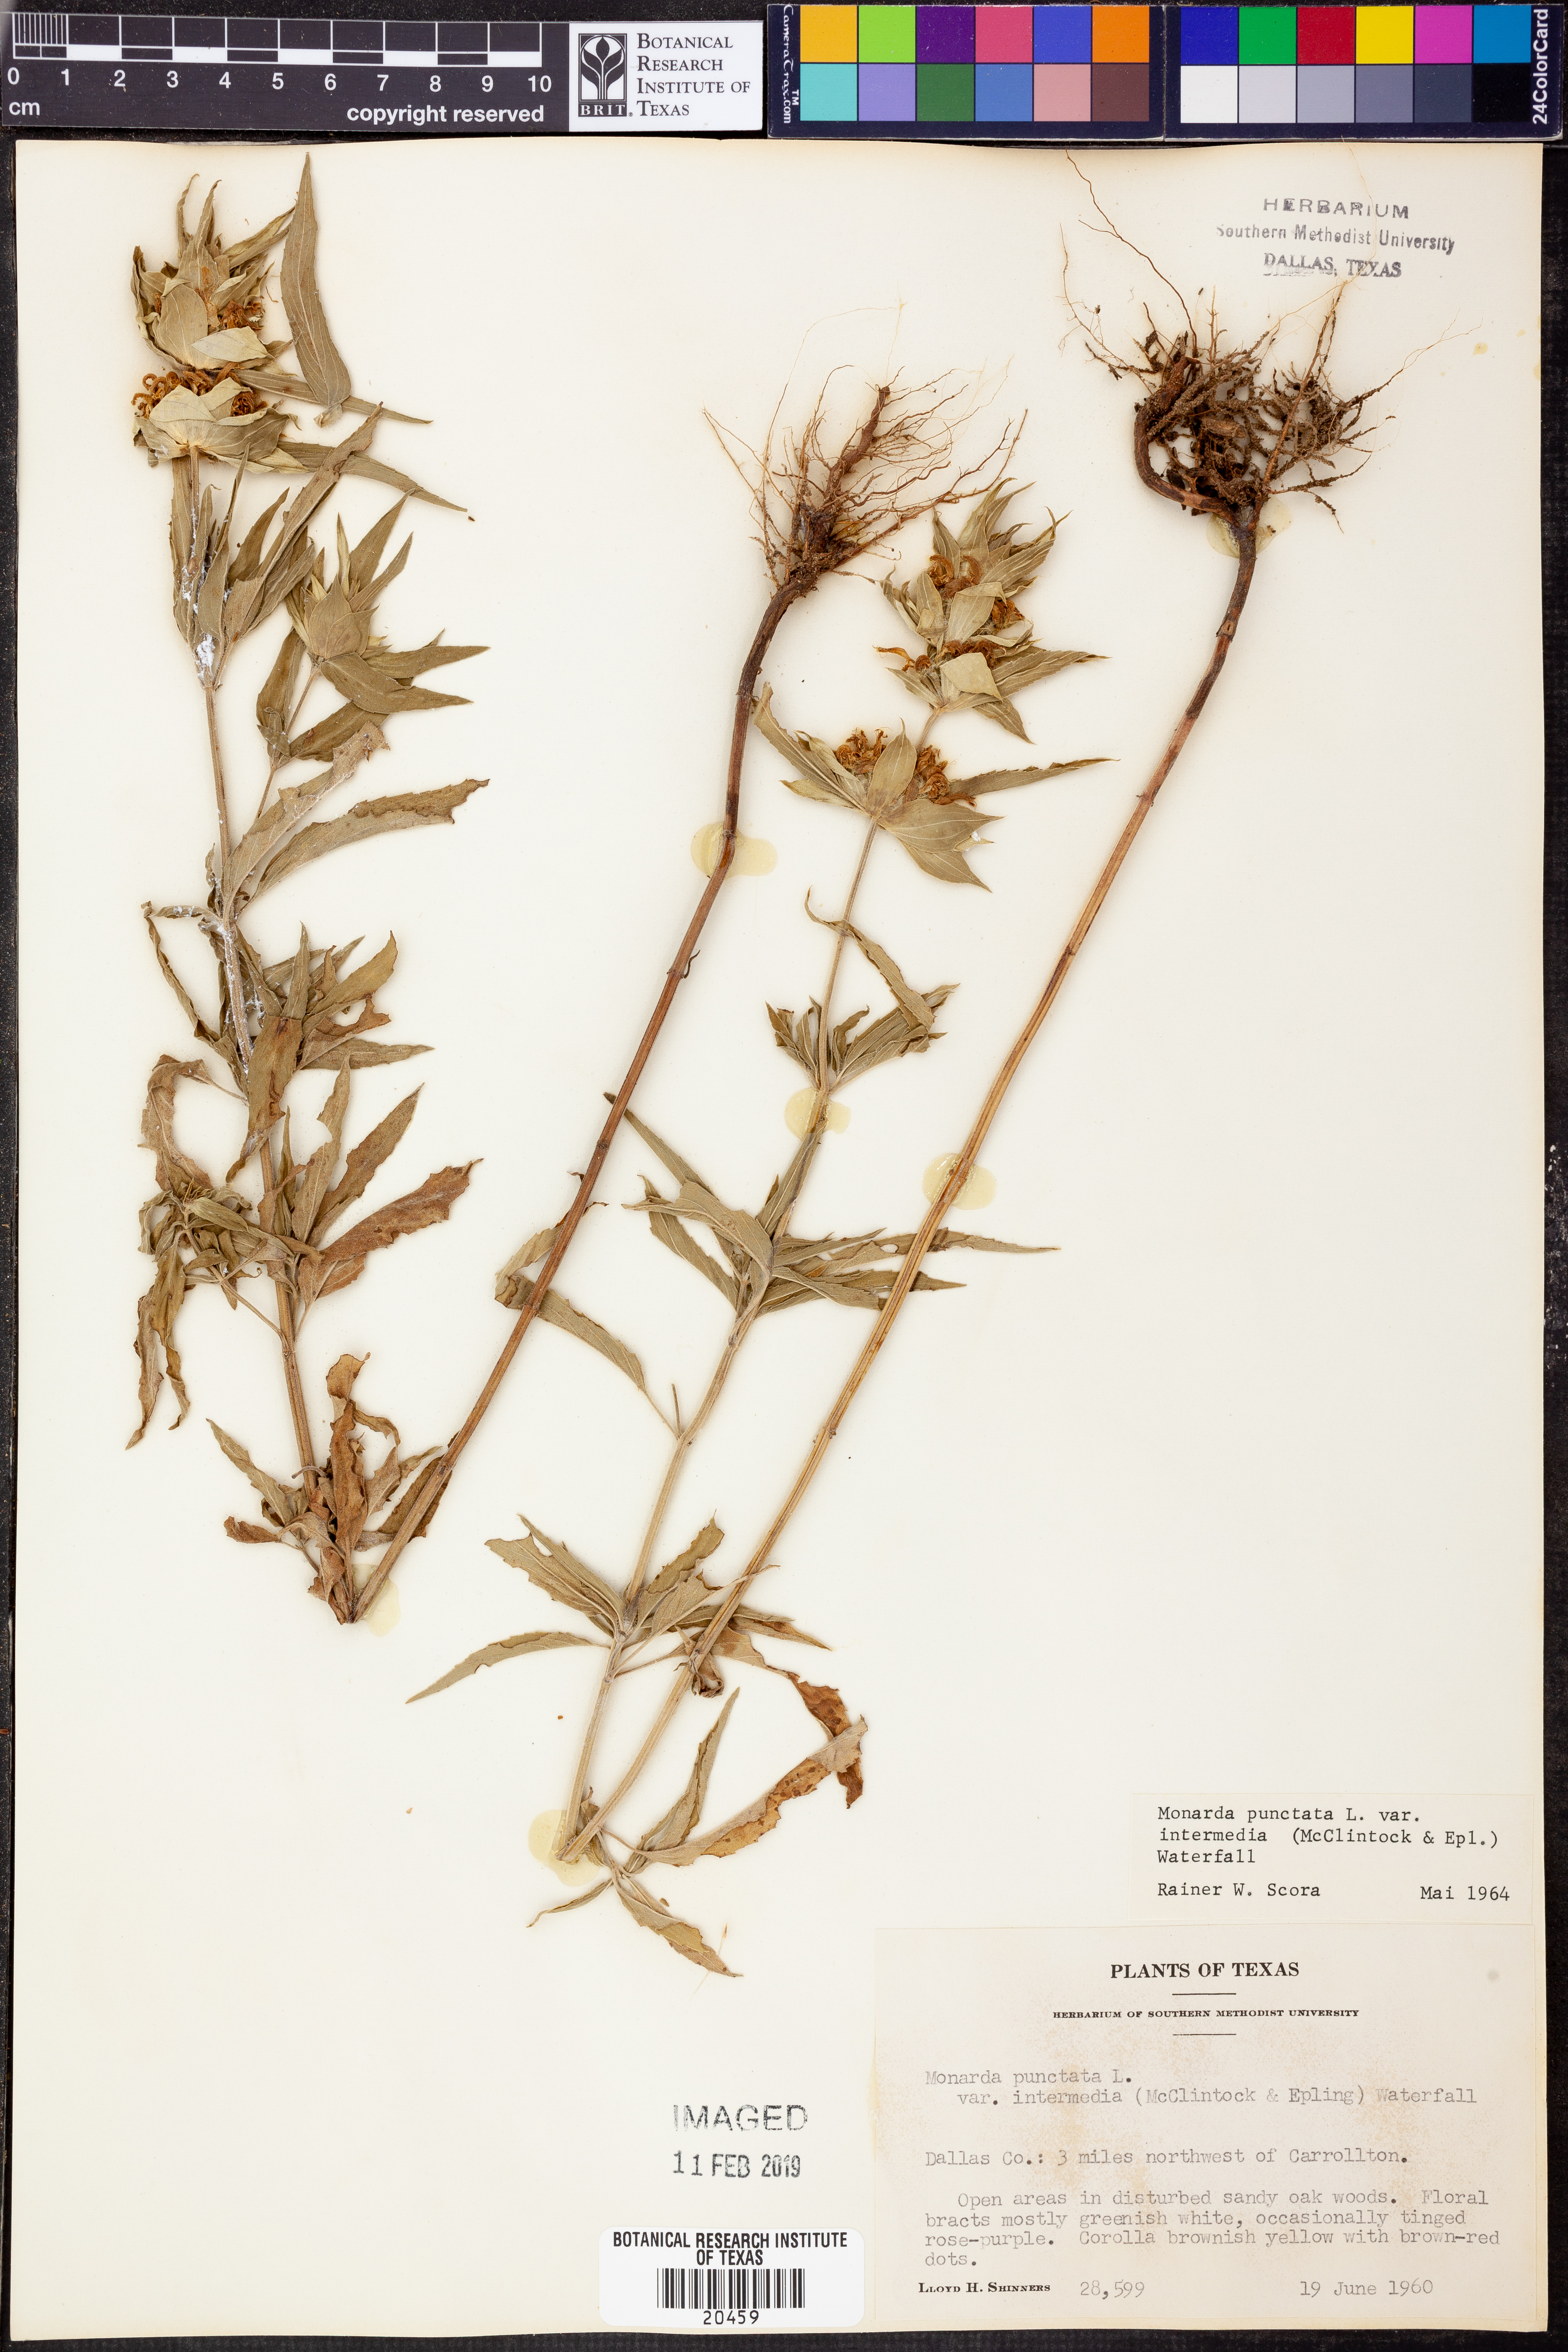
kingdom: Plantae
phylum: Tracheophyta
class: Magnoliopsida
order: Lamiales
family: Lamiaceae
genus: Monarda
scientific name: Monarda punctata
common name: Dotted monarda
